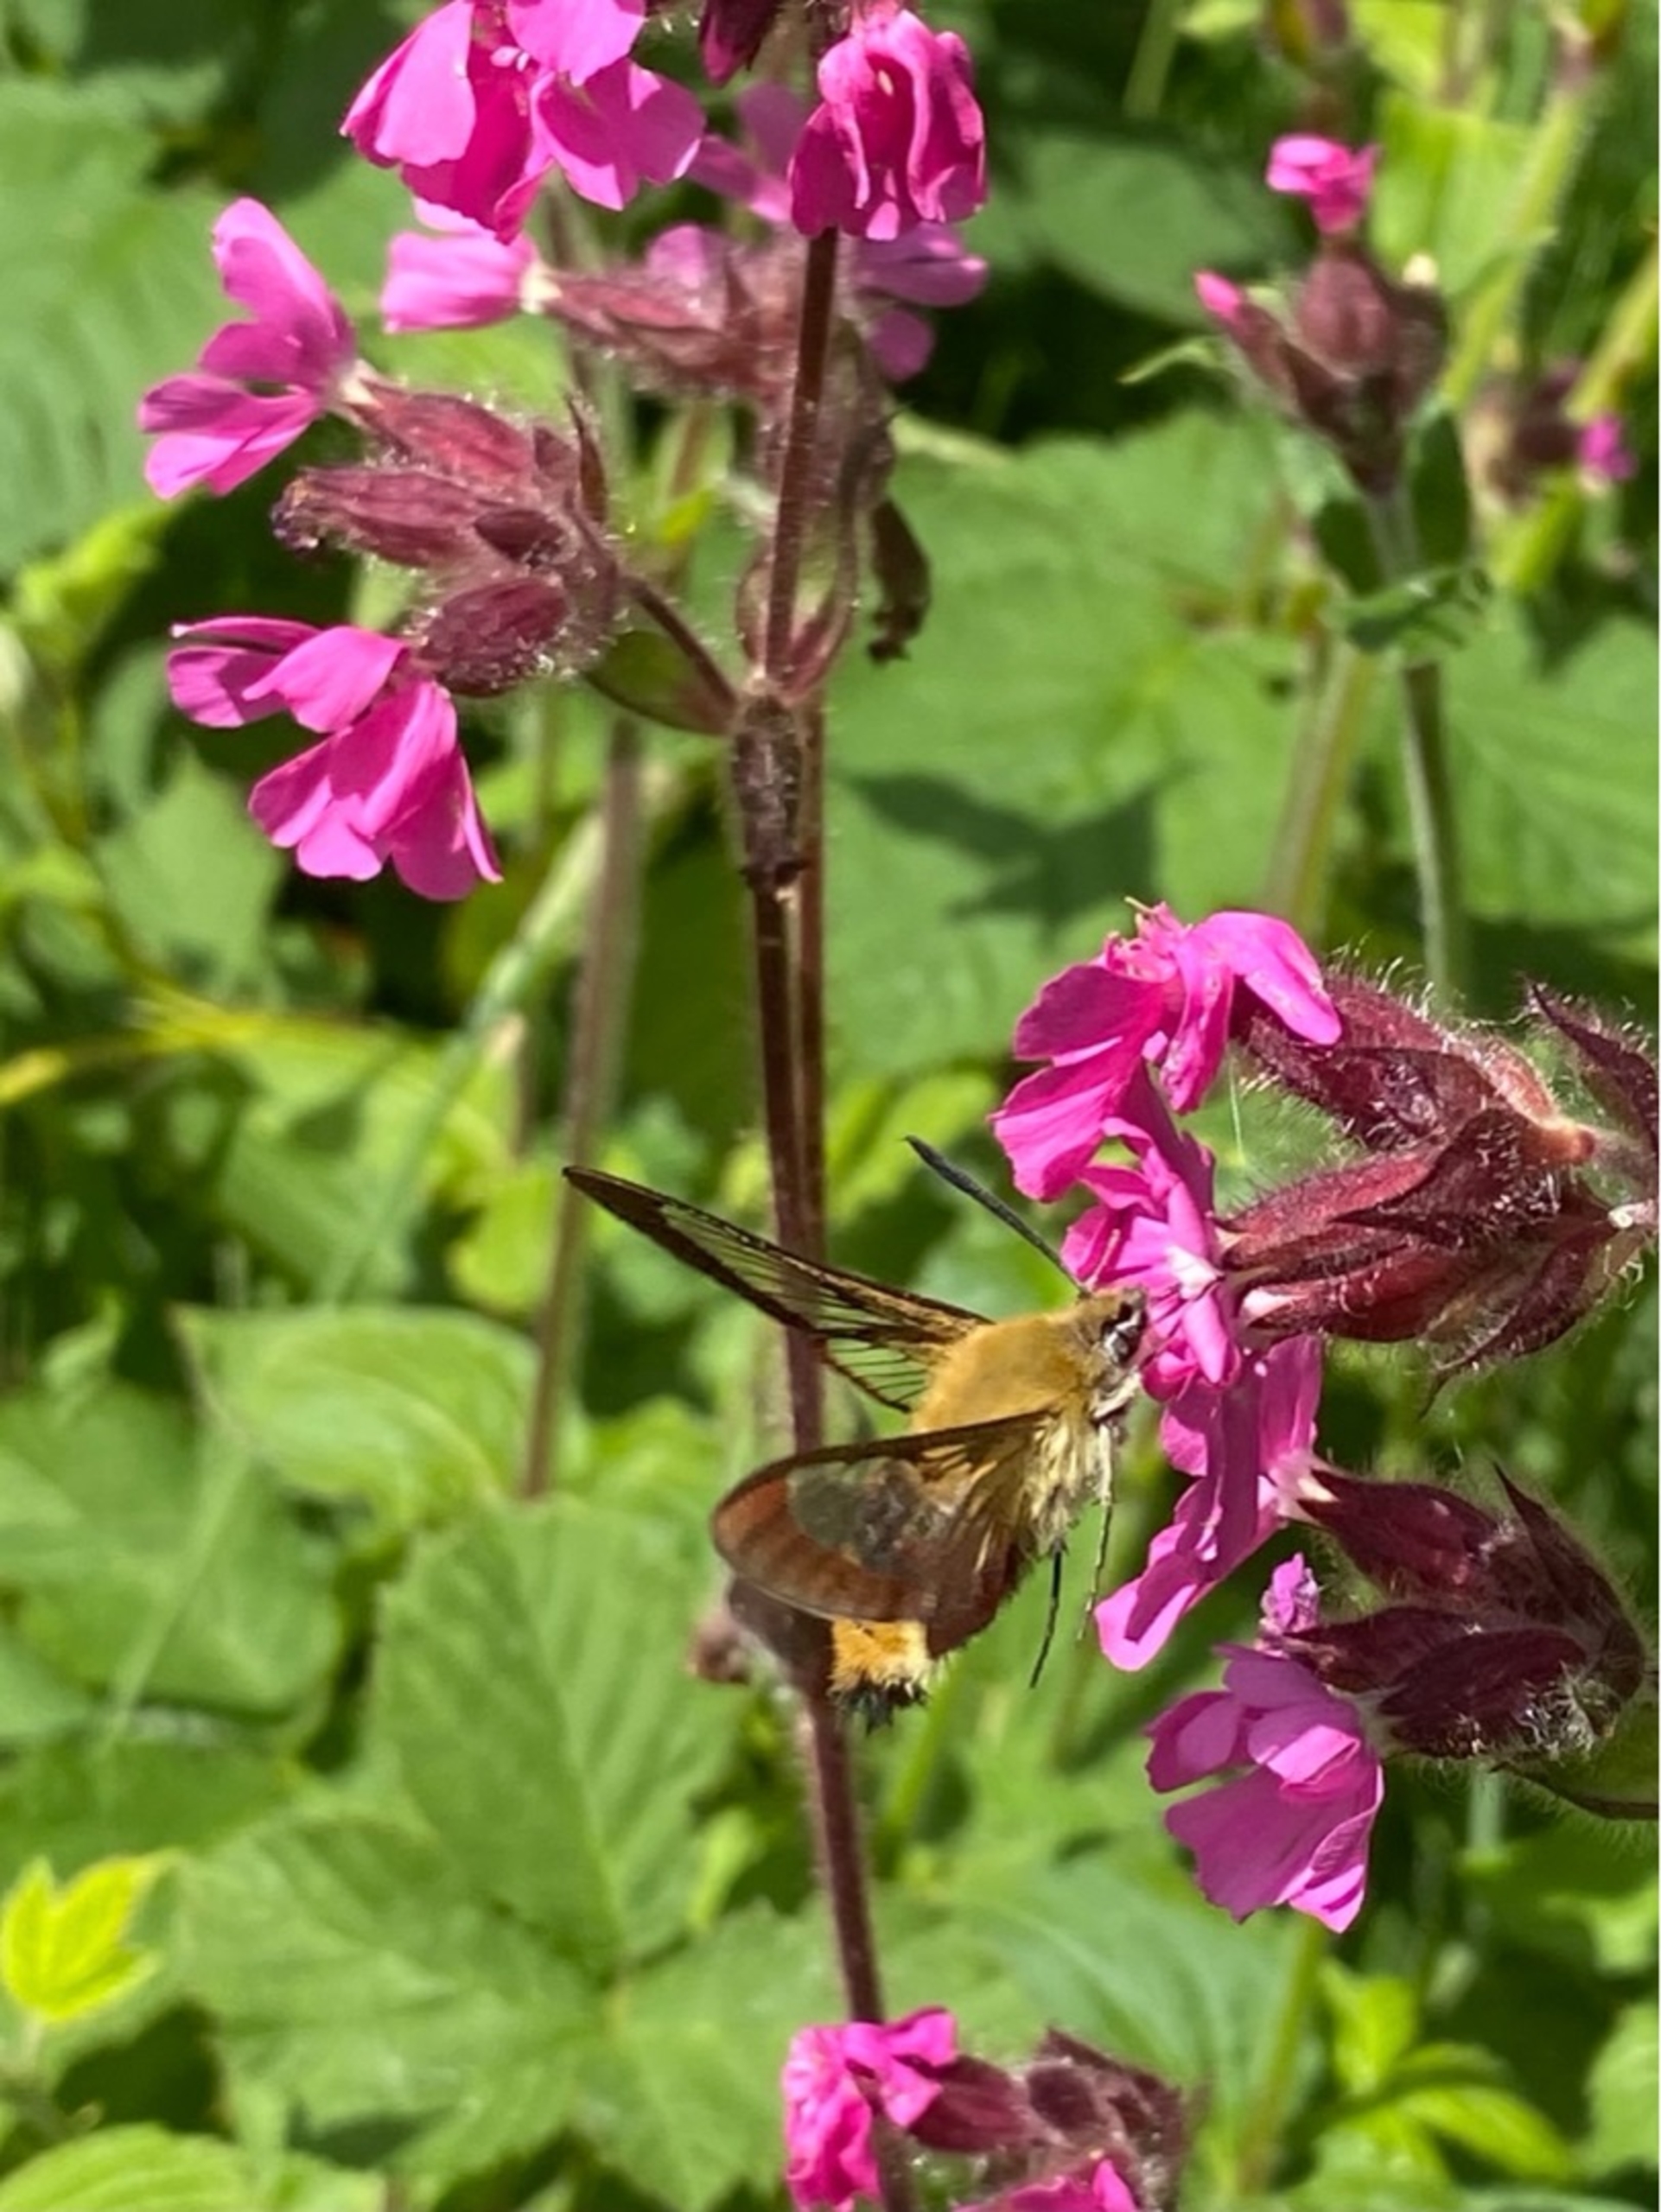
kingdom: Animalia
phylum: Arthropoda
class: Insecta
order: Lepidoptera
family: Sphingidae
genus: Hemaris
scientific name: Hemaris fuciformis
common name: Bredrandet humlebisværmer
